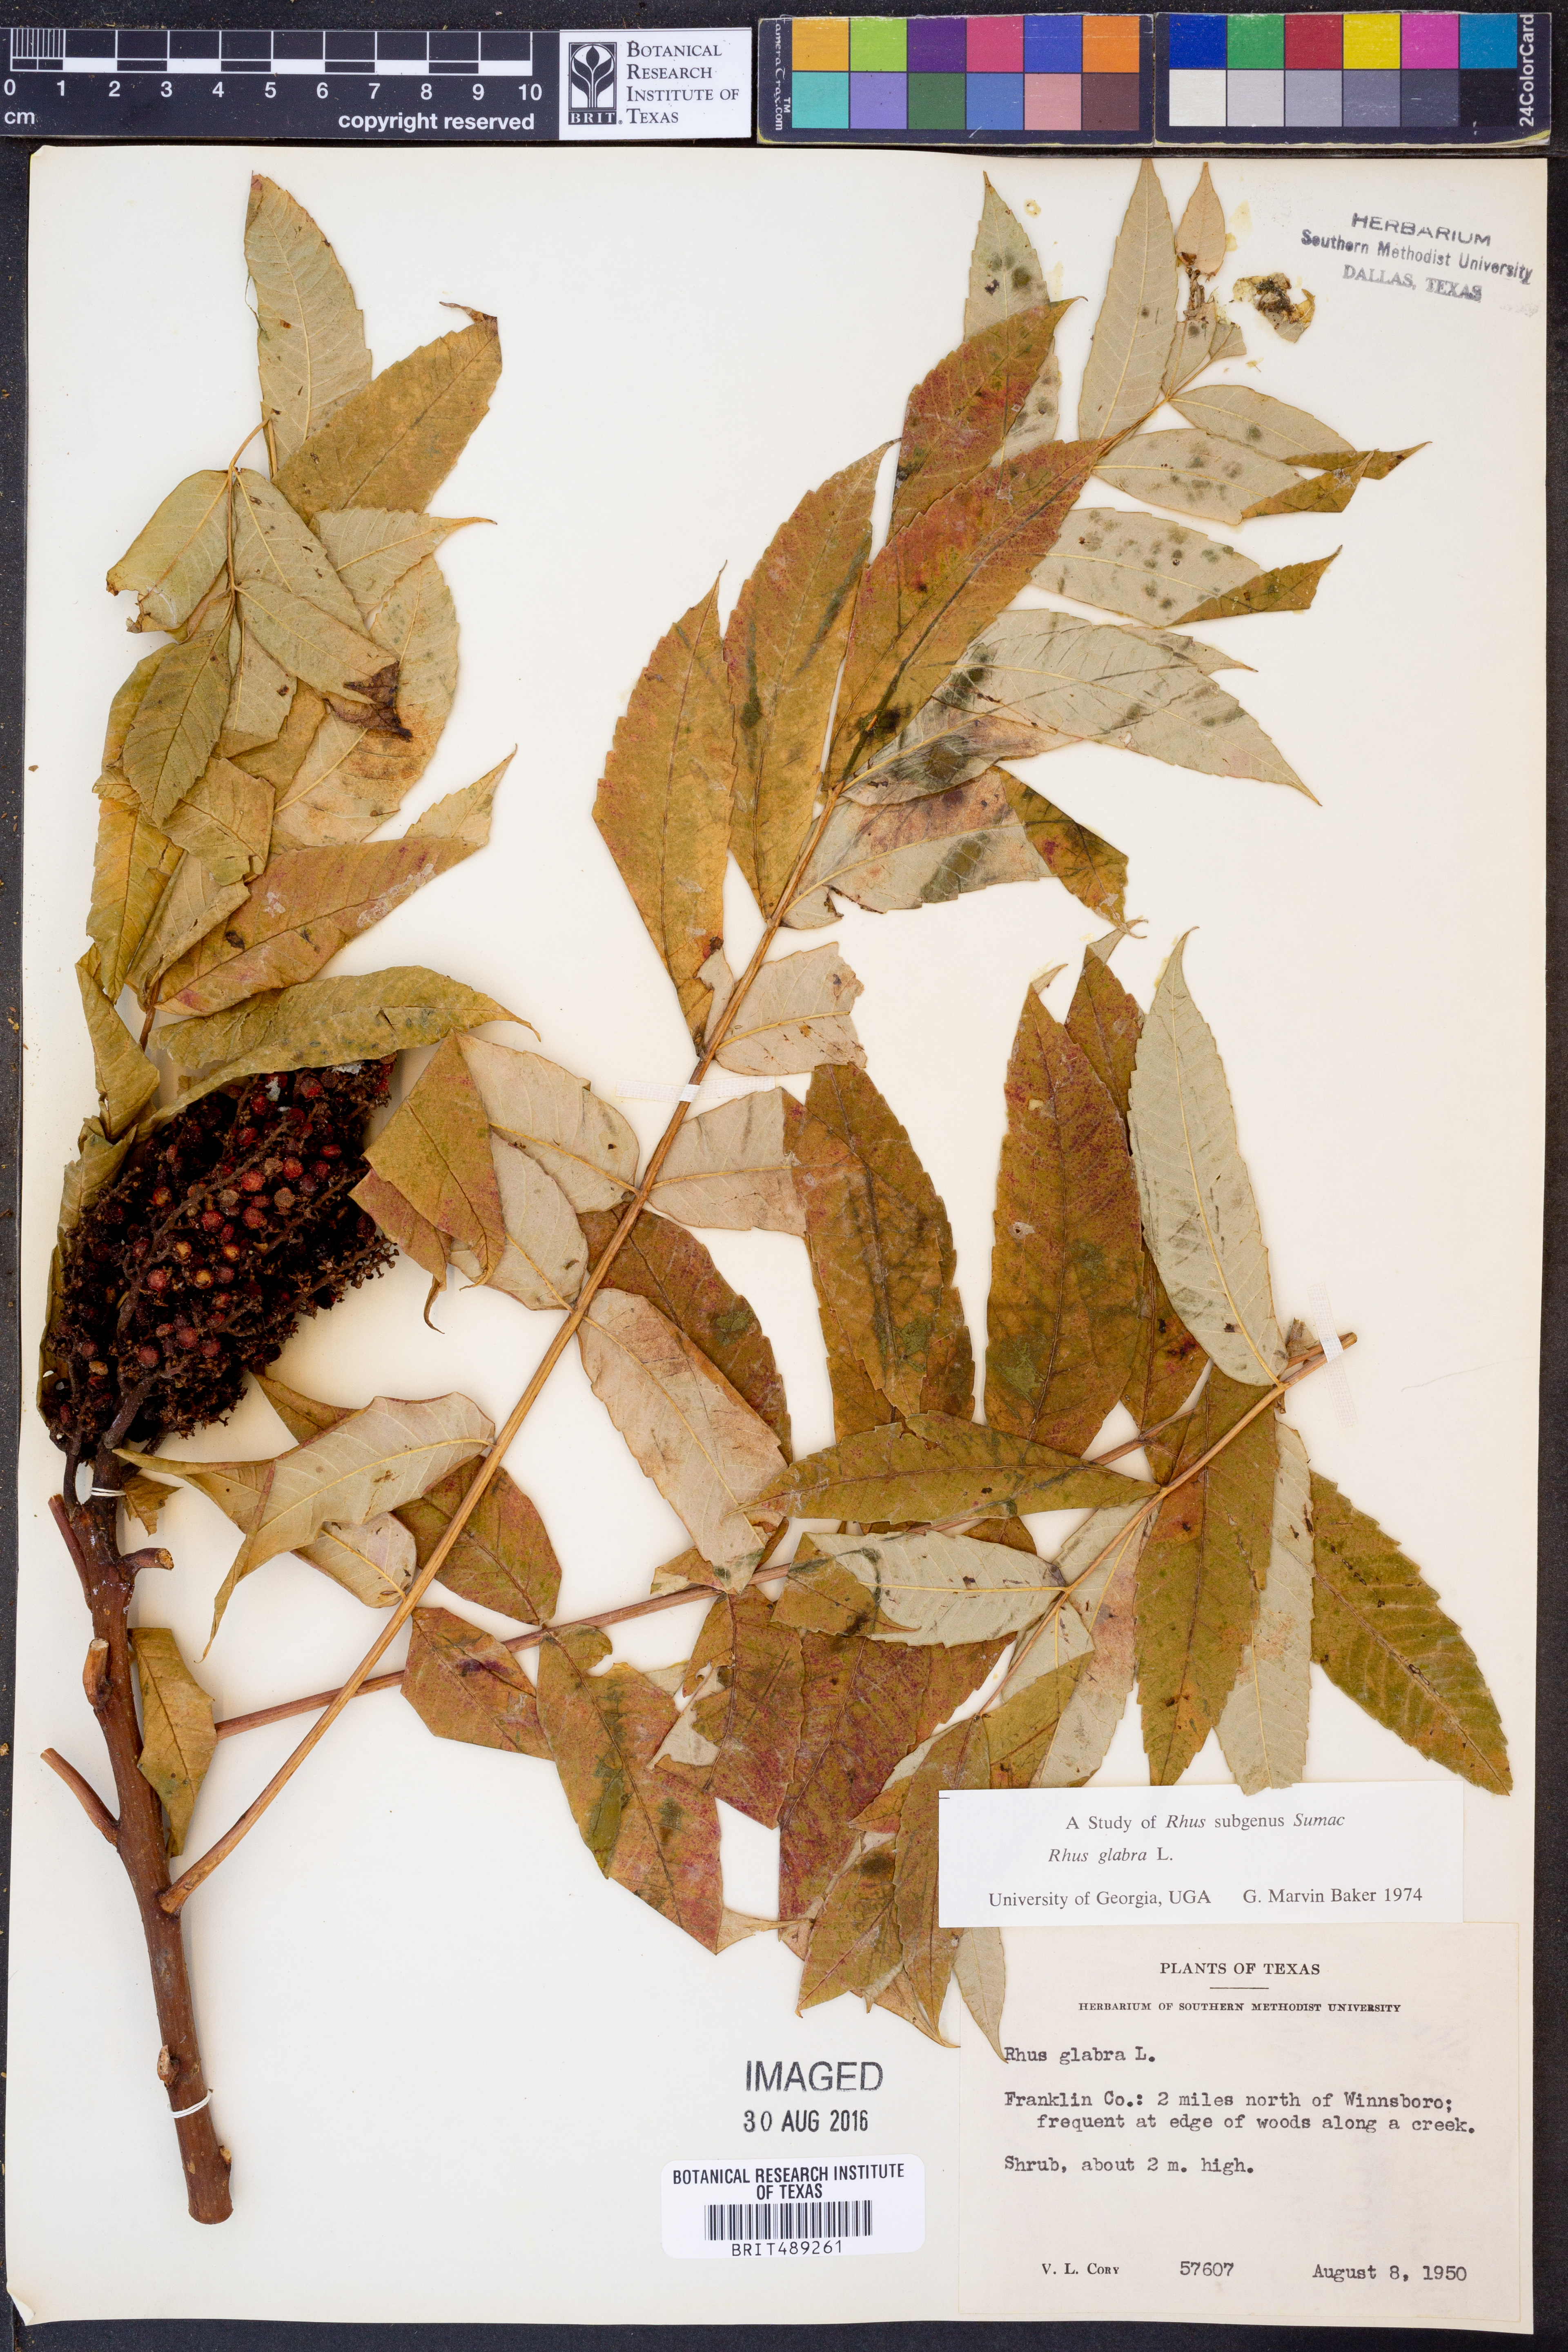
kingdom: Plantae
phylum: Tracheophyta
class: Magnoliopsida
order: Sapindales
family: Anacardiaceae
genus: Rhus
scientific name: Rhus glabra
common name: Scarlet sumac
